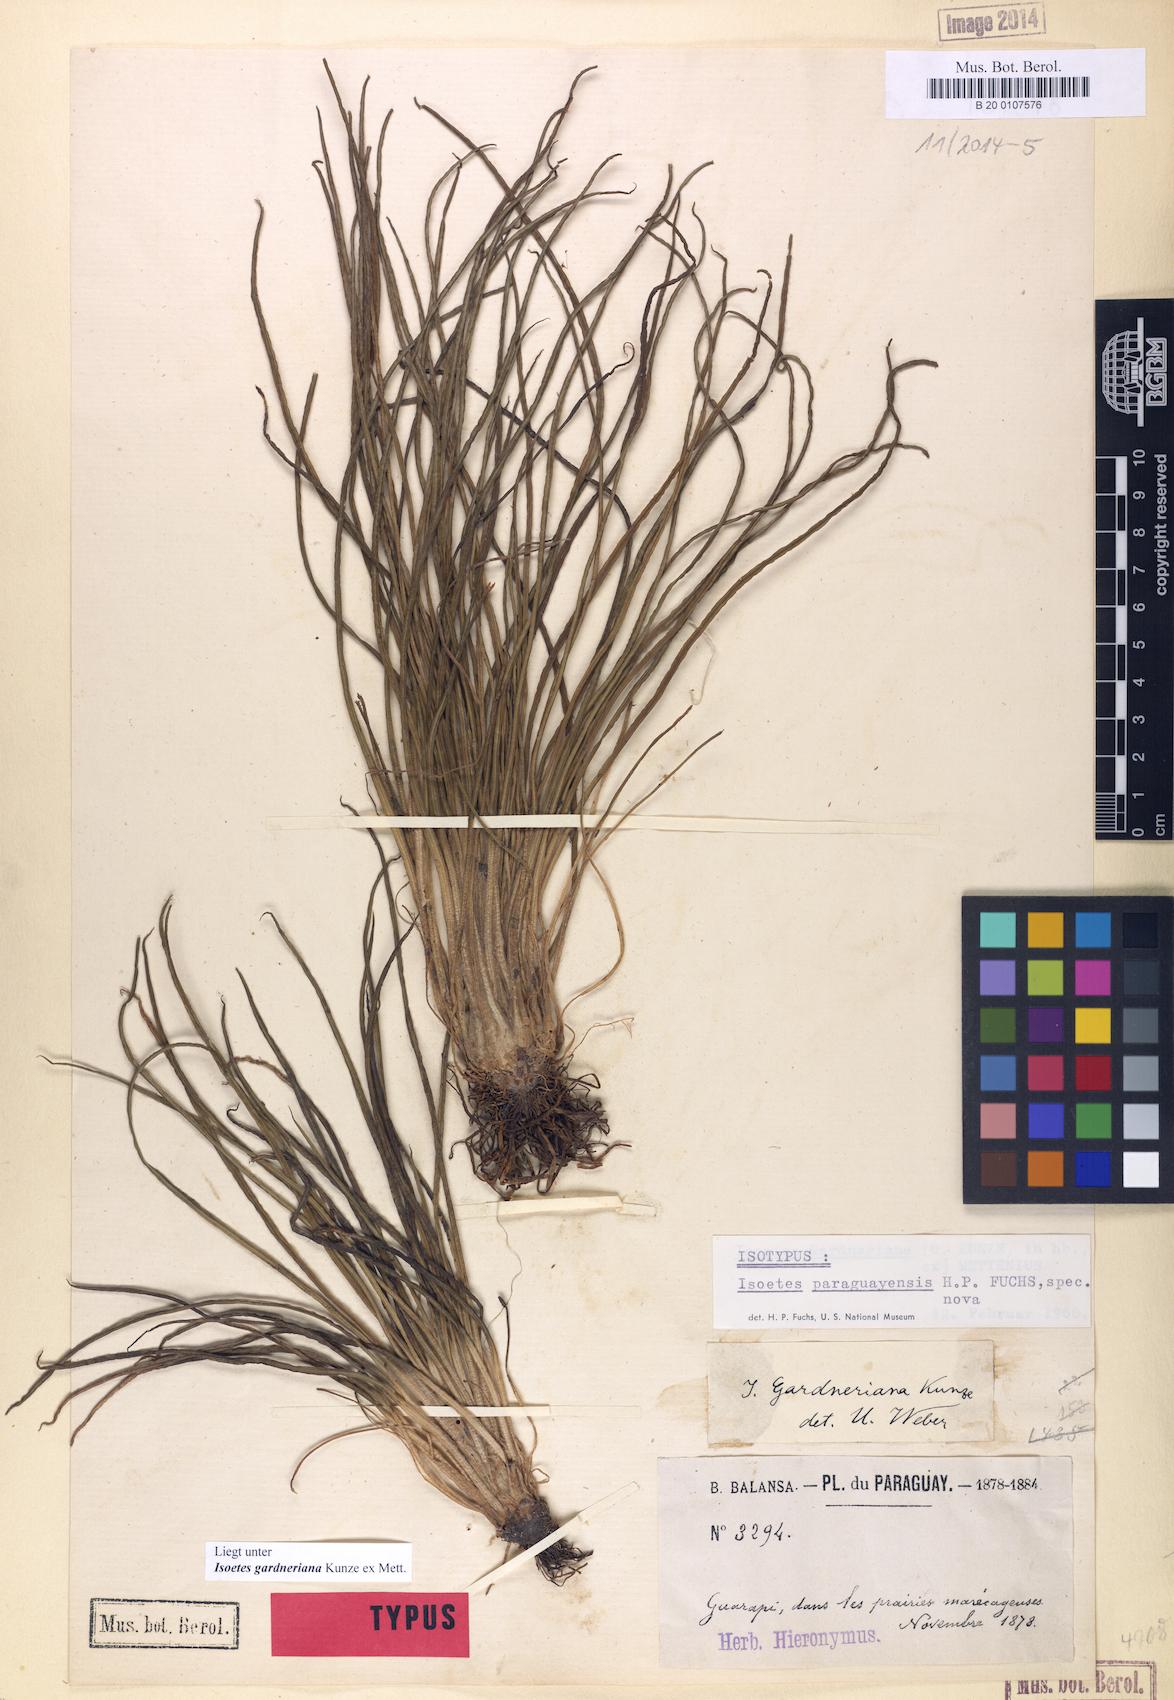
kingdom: Plantae
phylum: Tracheophyta
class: Lycopodiopsida
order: Isoetales
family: Isoetaceae
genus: Isoetes
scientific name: Isoetes panamensis
